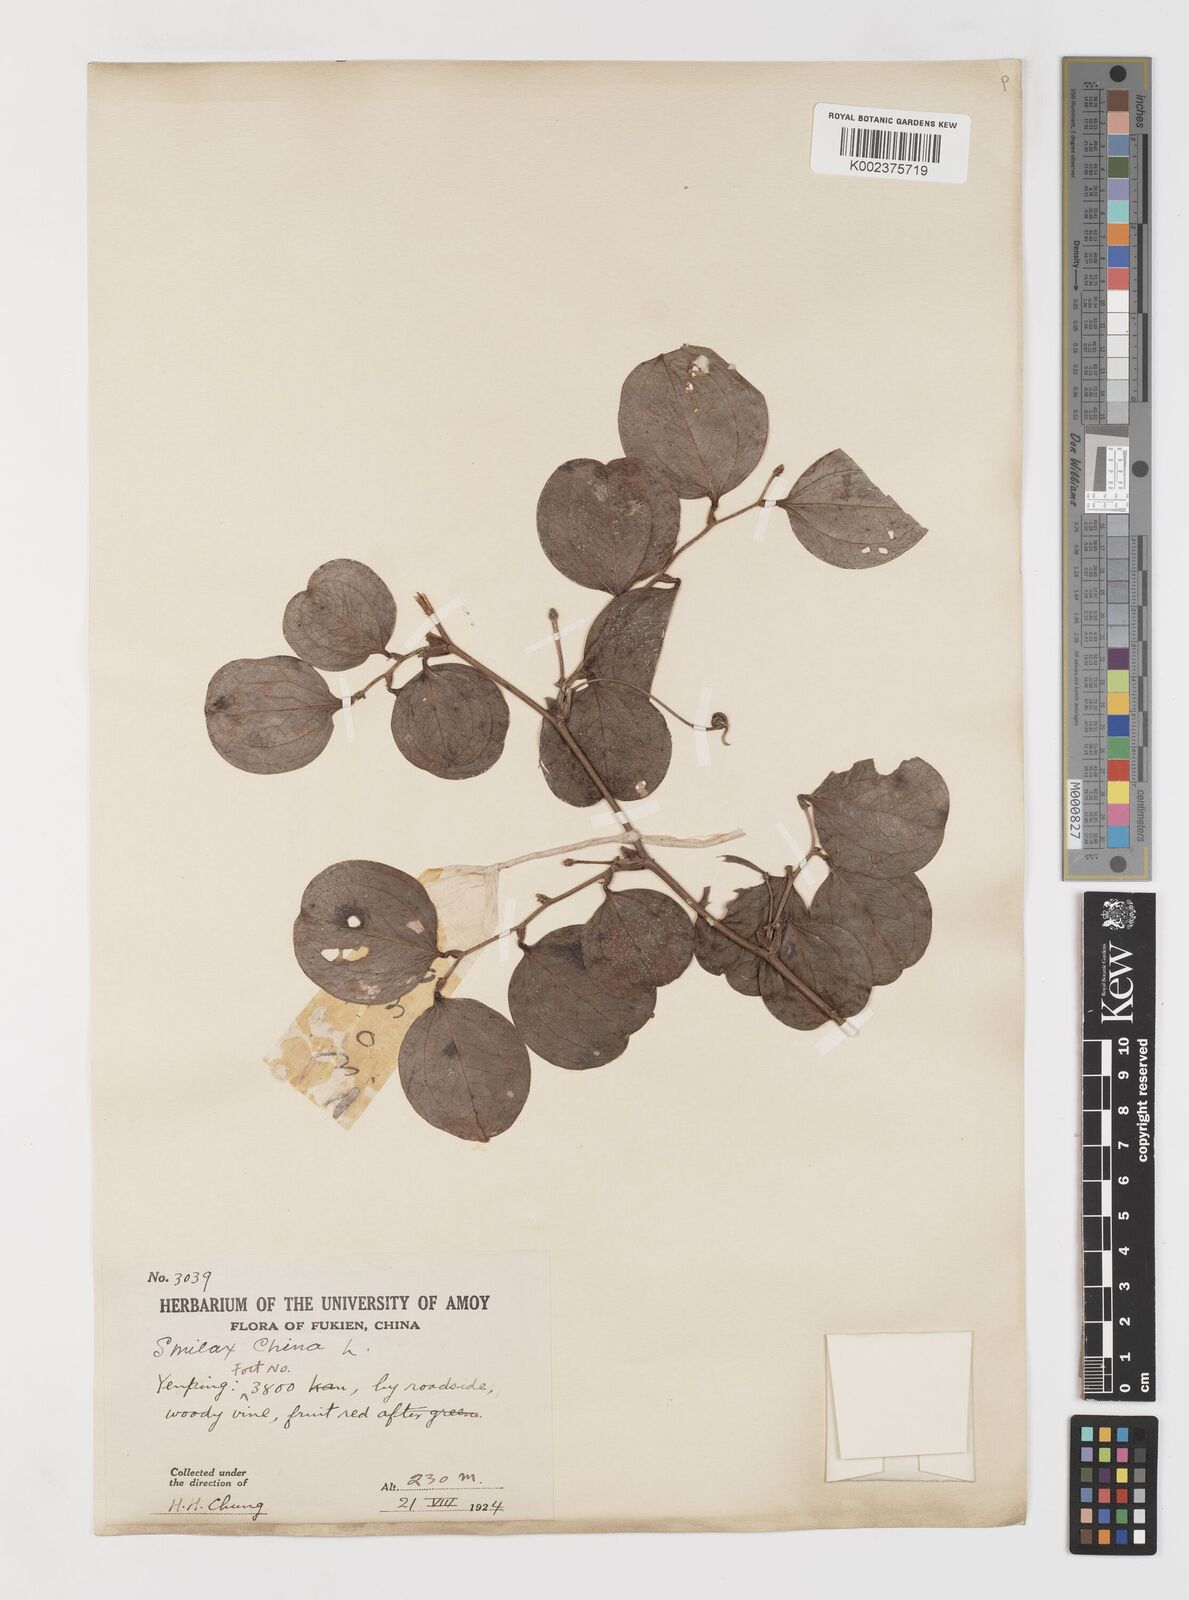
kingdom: Plantae
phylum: Tracheophyta
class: Liliopsida
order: Liliales
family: Smilacaceae
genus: Smilax
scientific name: Smilax china
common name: Chinaroot
